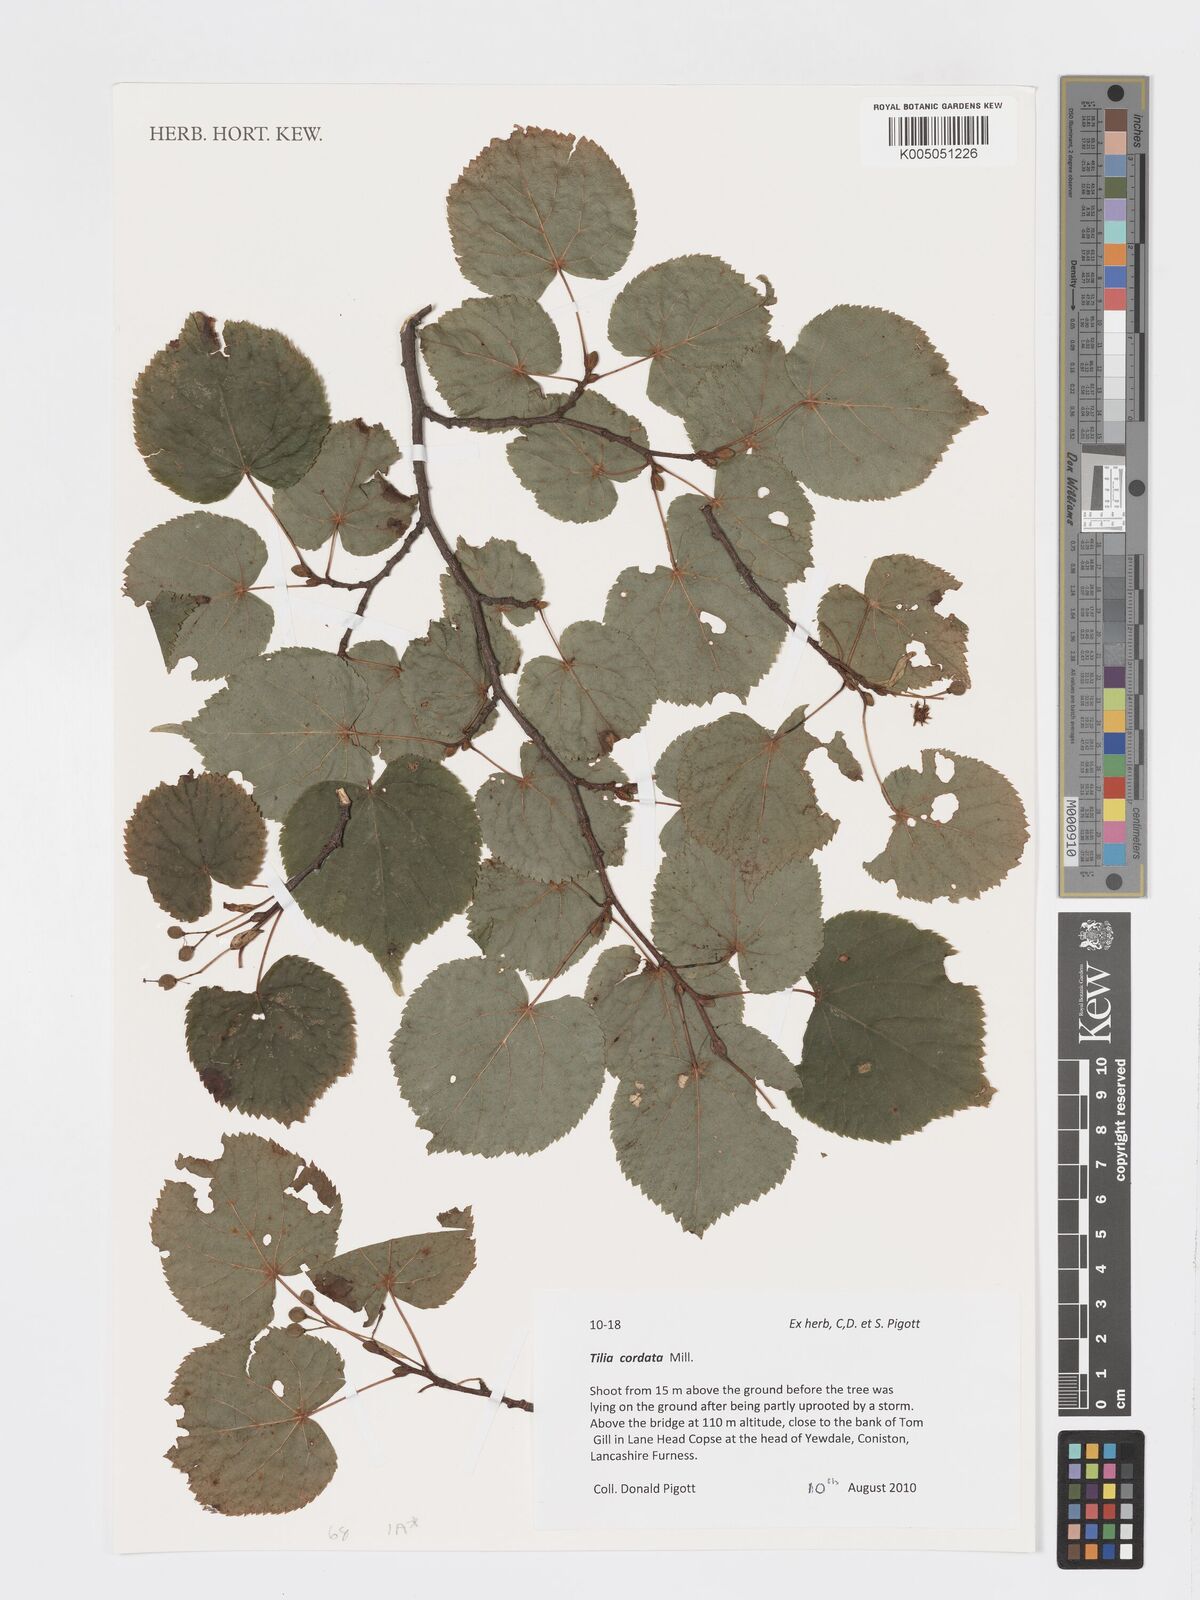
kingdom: Plantae
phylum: Tracheophyta
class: Magnoliopsida
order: Malvales
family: Malvaceae
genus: Tilia
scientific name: Tilia cordata
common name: Small-leaved lime
